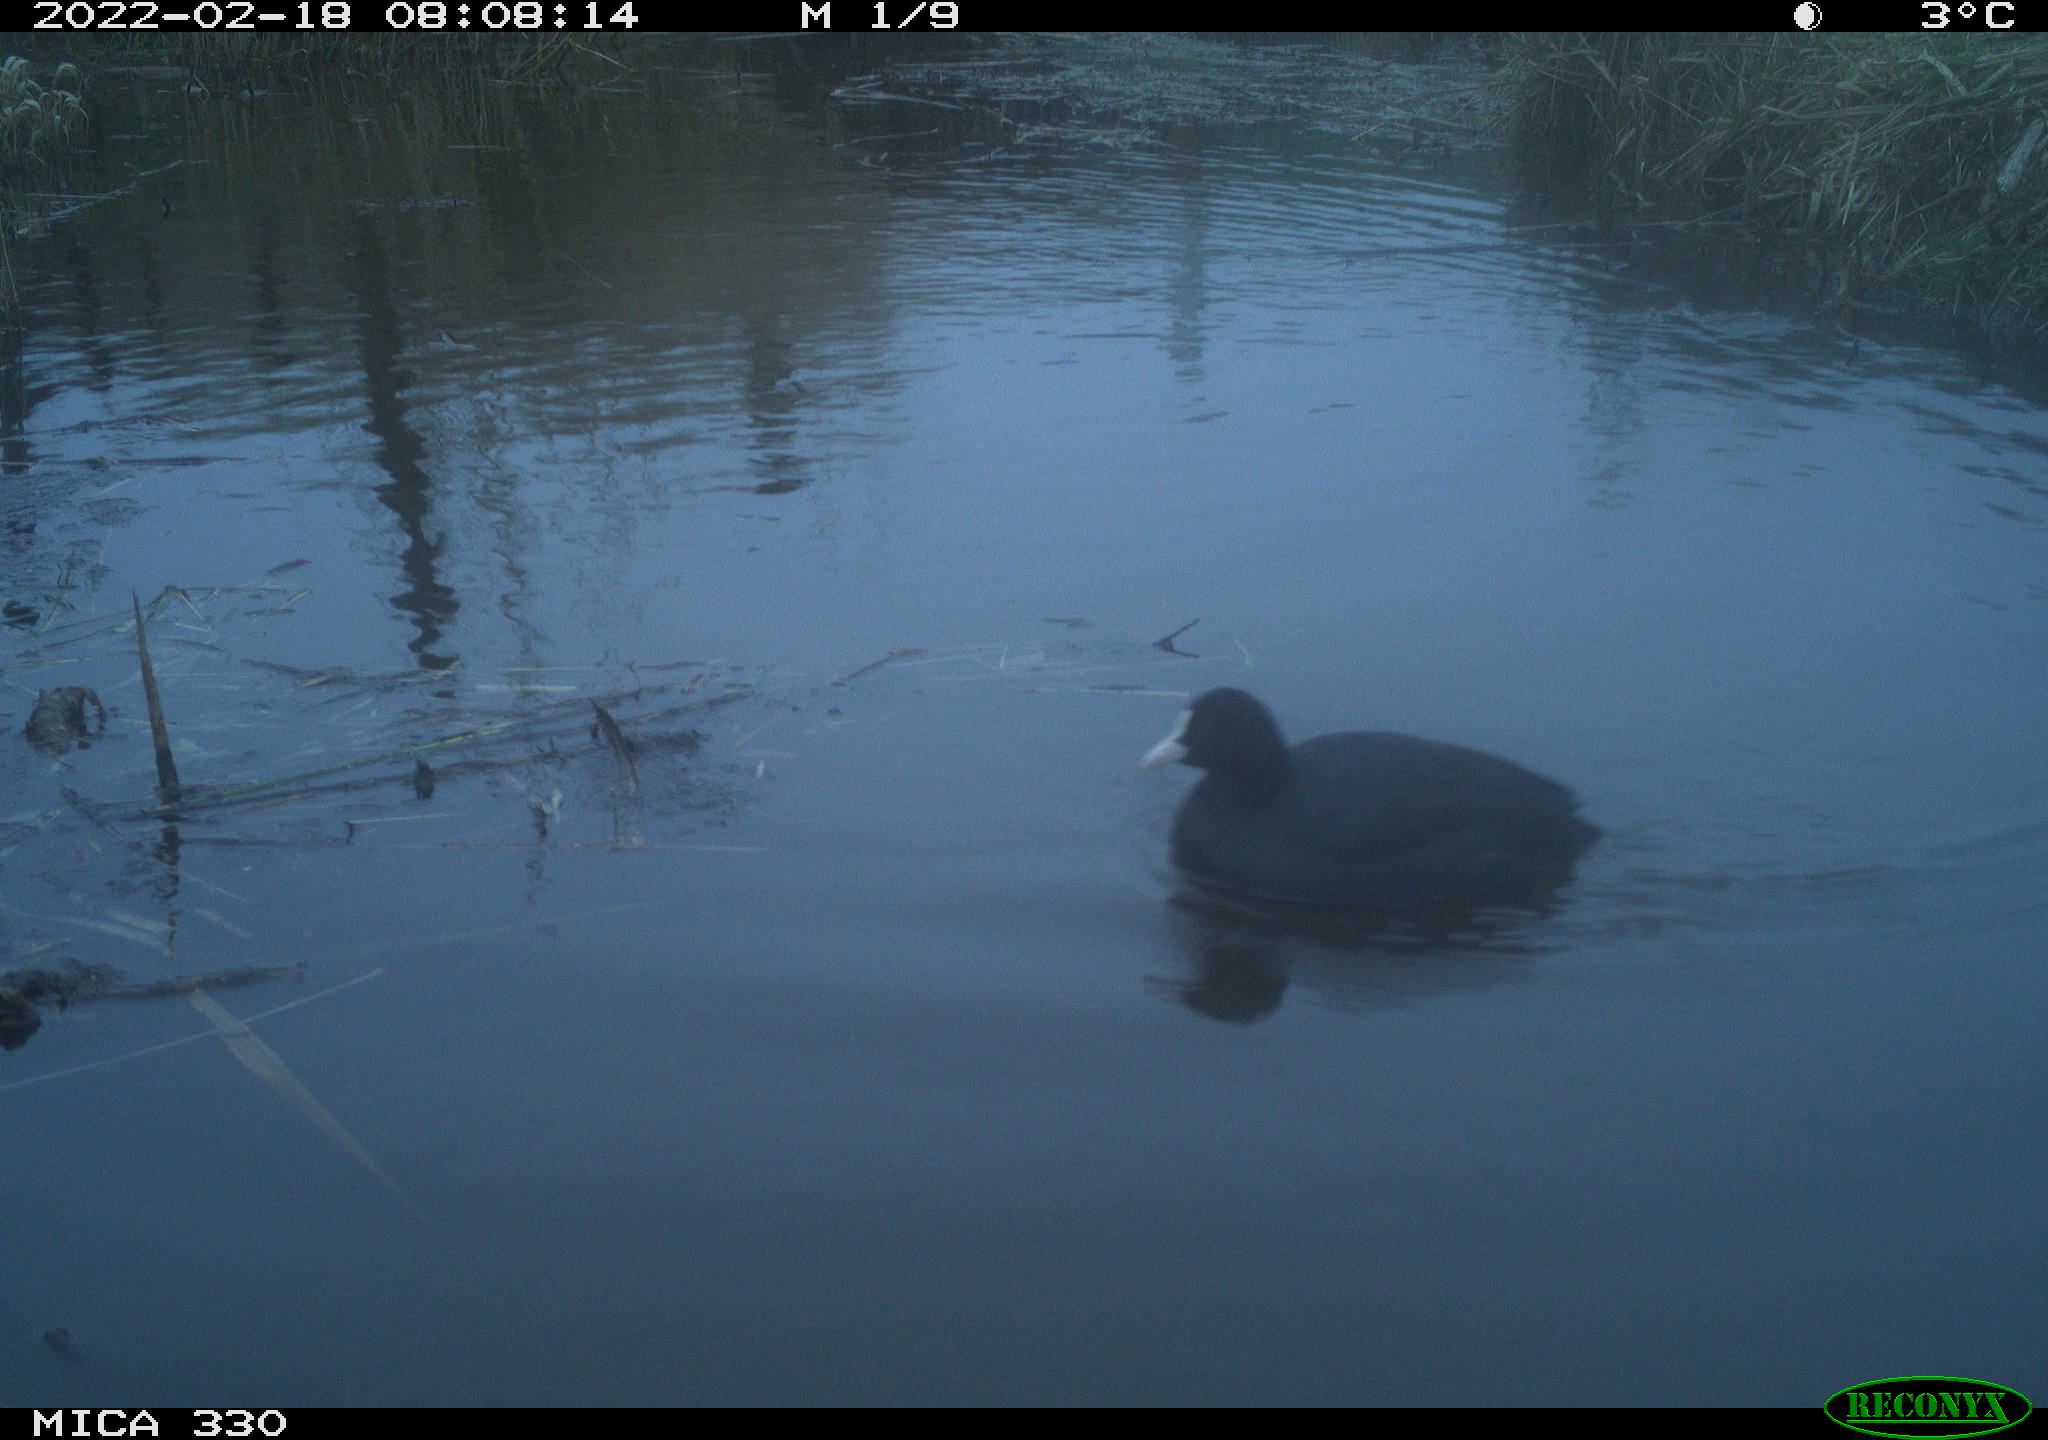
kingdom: Animalia
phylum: Chordata
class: Aves
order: Gruiformes
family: Rallidae
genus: Fulica
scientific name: Fulica atra
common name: Eurasian coot
